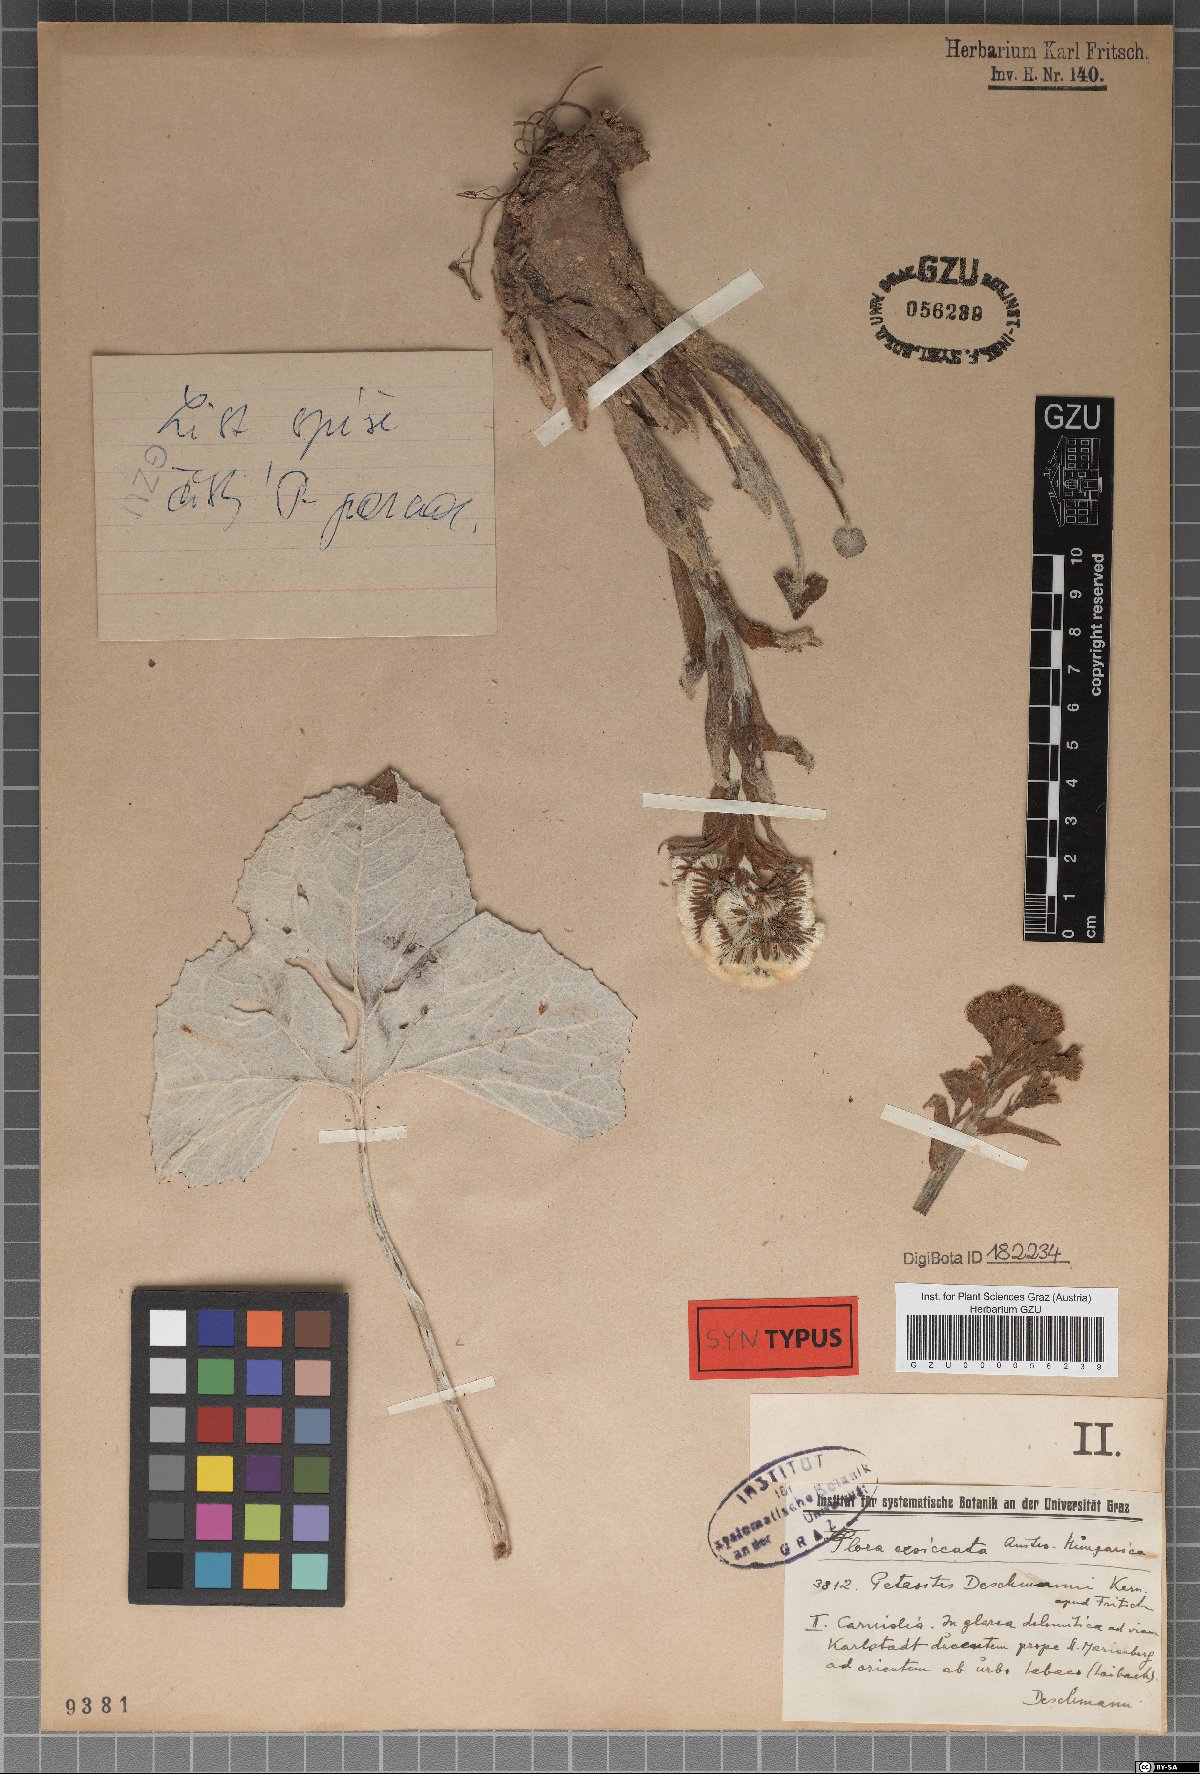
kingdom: Plantae
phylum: Tracheophyta
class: Magnoliopsida
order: Asterales
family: Asteraceae
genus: Petasites
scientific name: Petasites deschmannii
